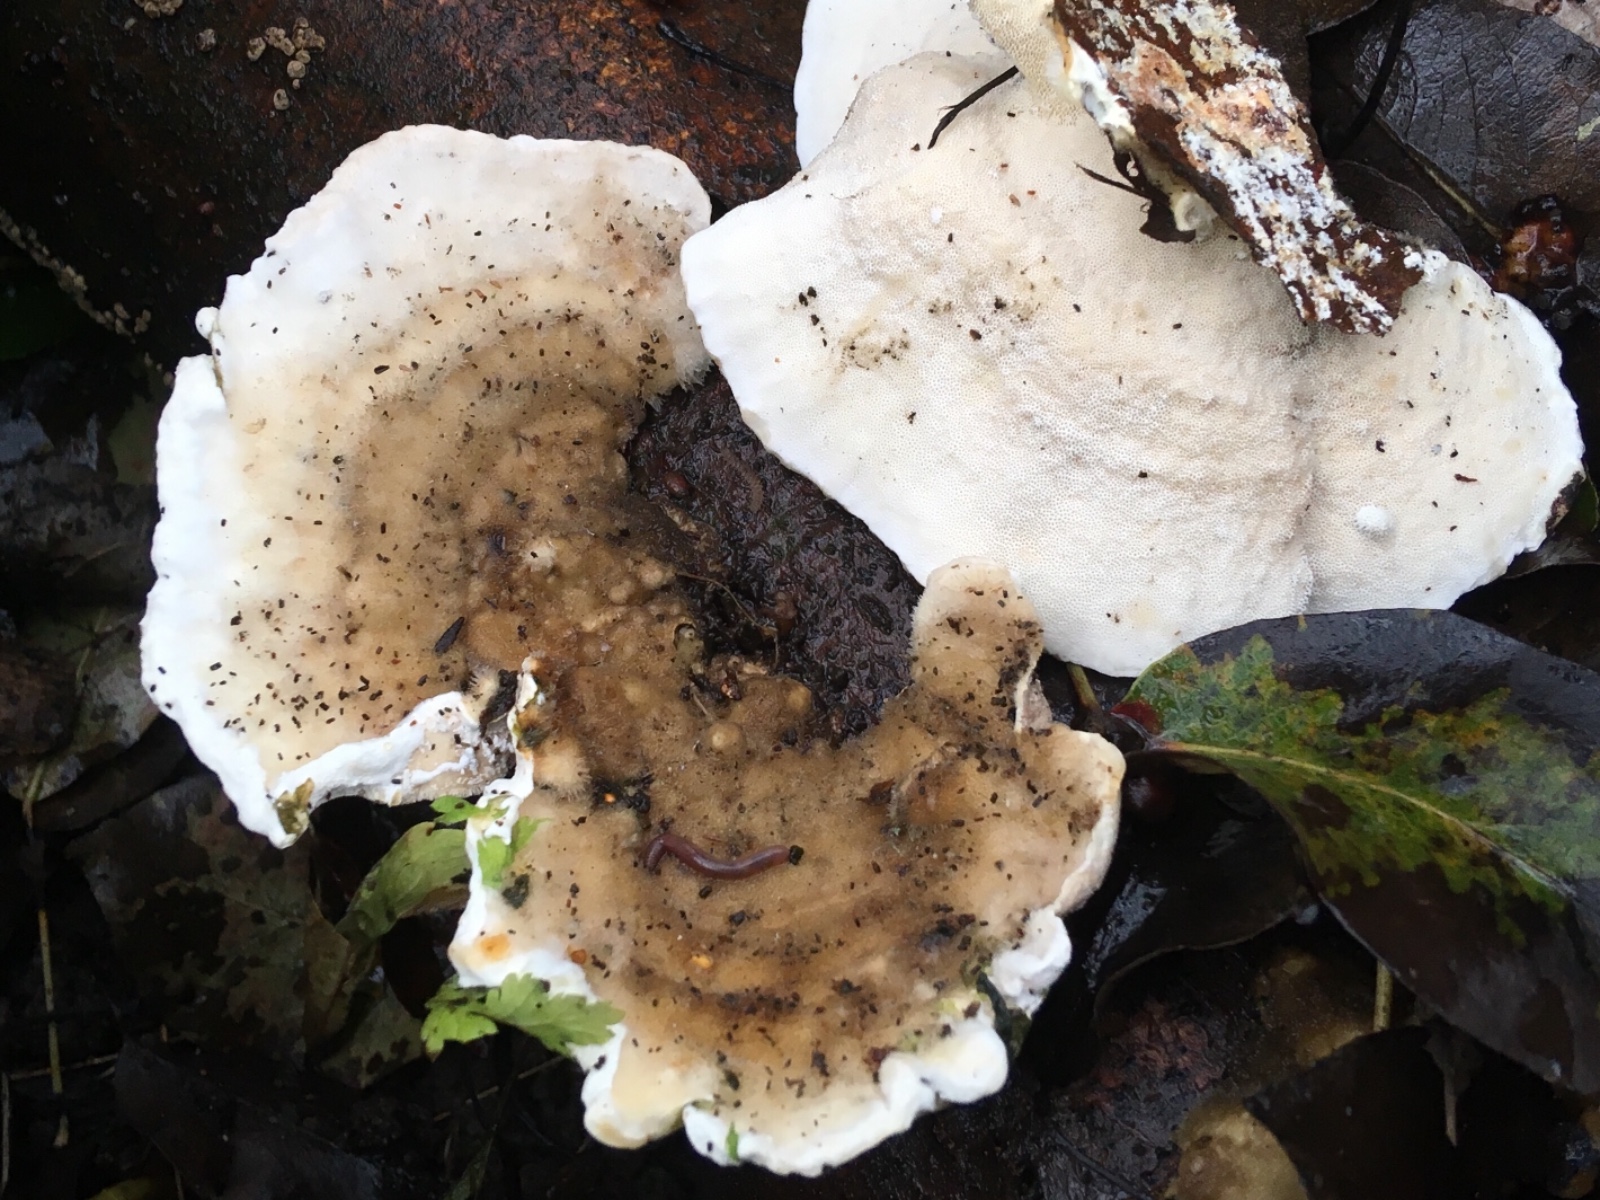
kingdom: Fungi
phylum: Basidiomycota
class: Agaricomycetes
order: Polyporales
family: Polyporaceae
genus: Trametes
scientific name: Trametes hirsuta
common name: håret læderporesvamp
